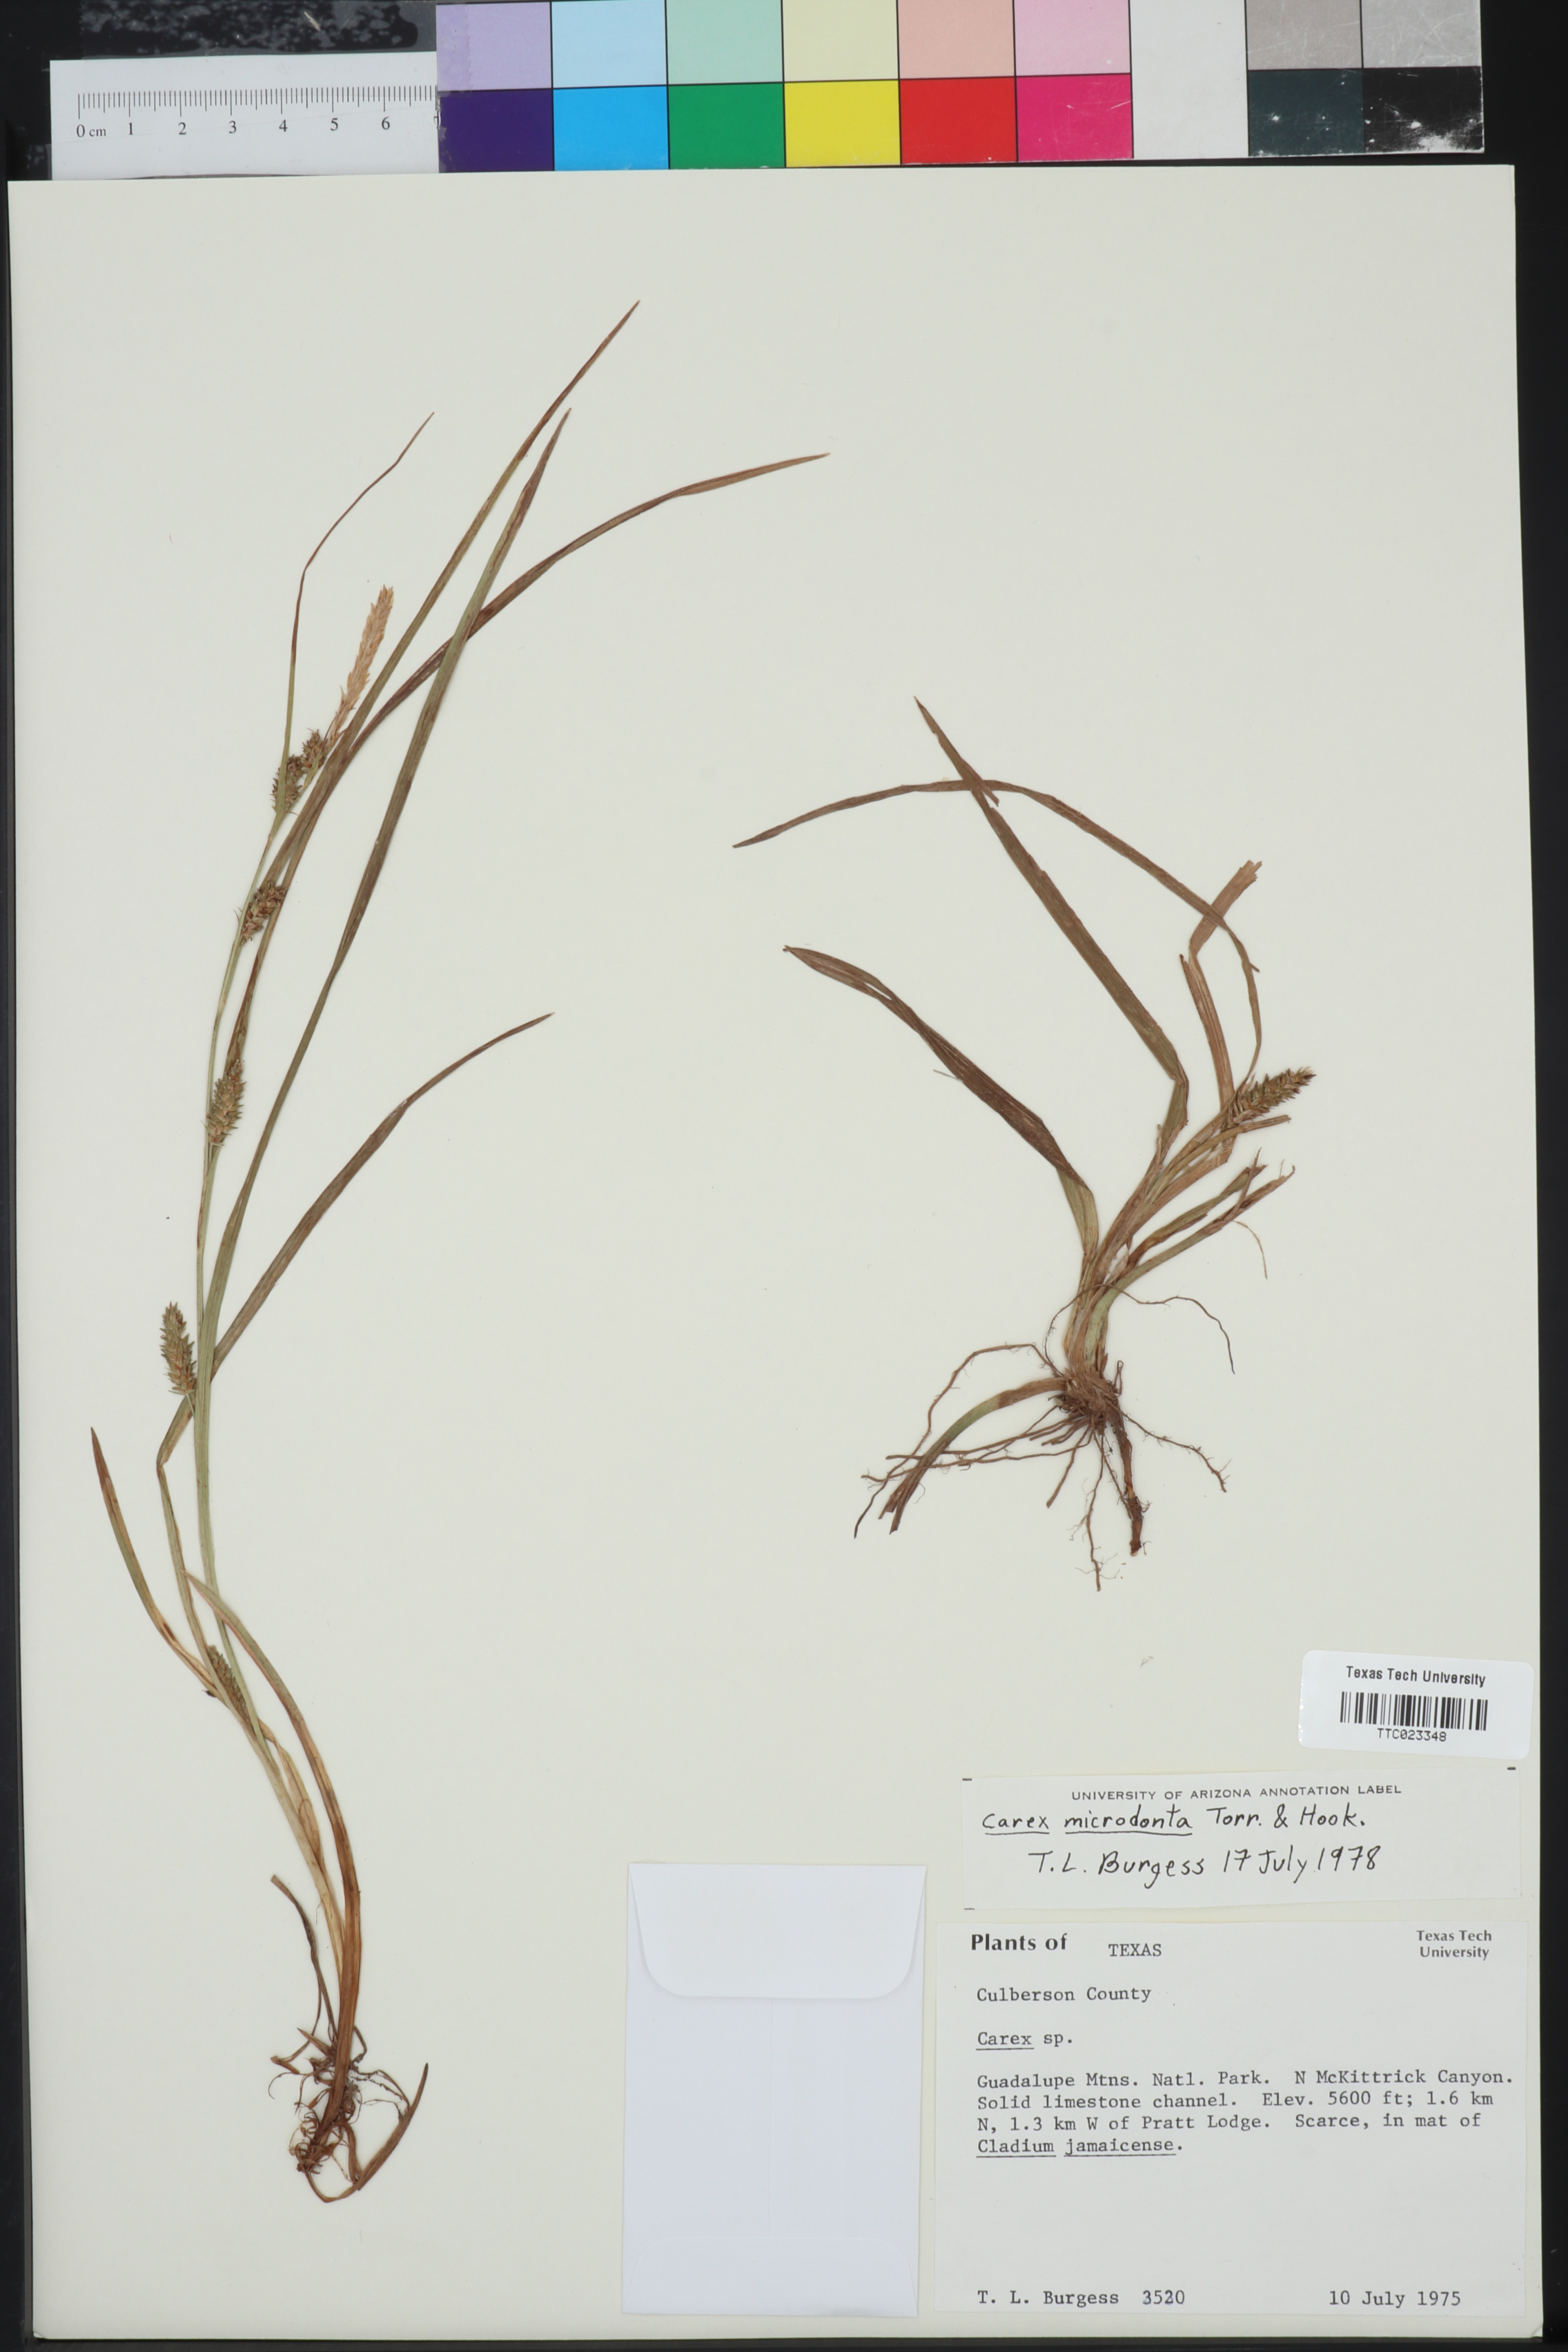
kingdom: Plantae
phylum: Tracheophyta
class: Liliopsida
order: Poales
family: Cyperaceae
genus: Carex
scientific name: Carex microdonta
